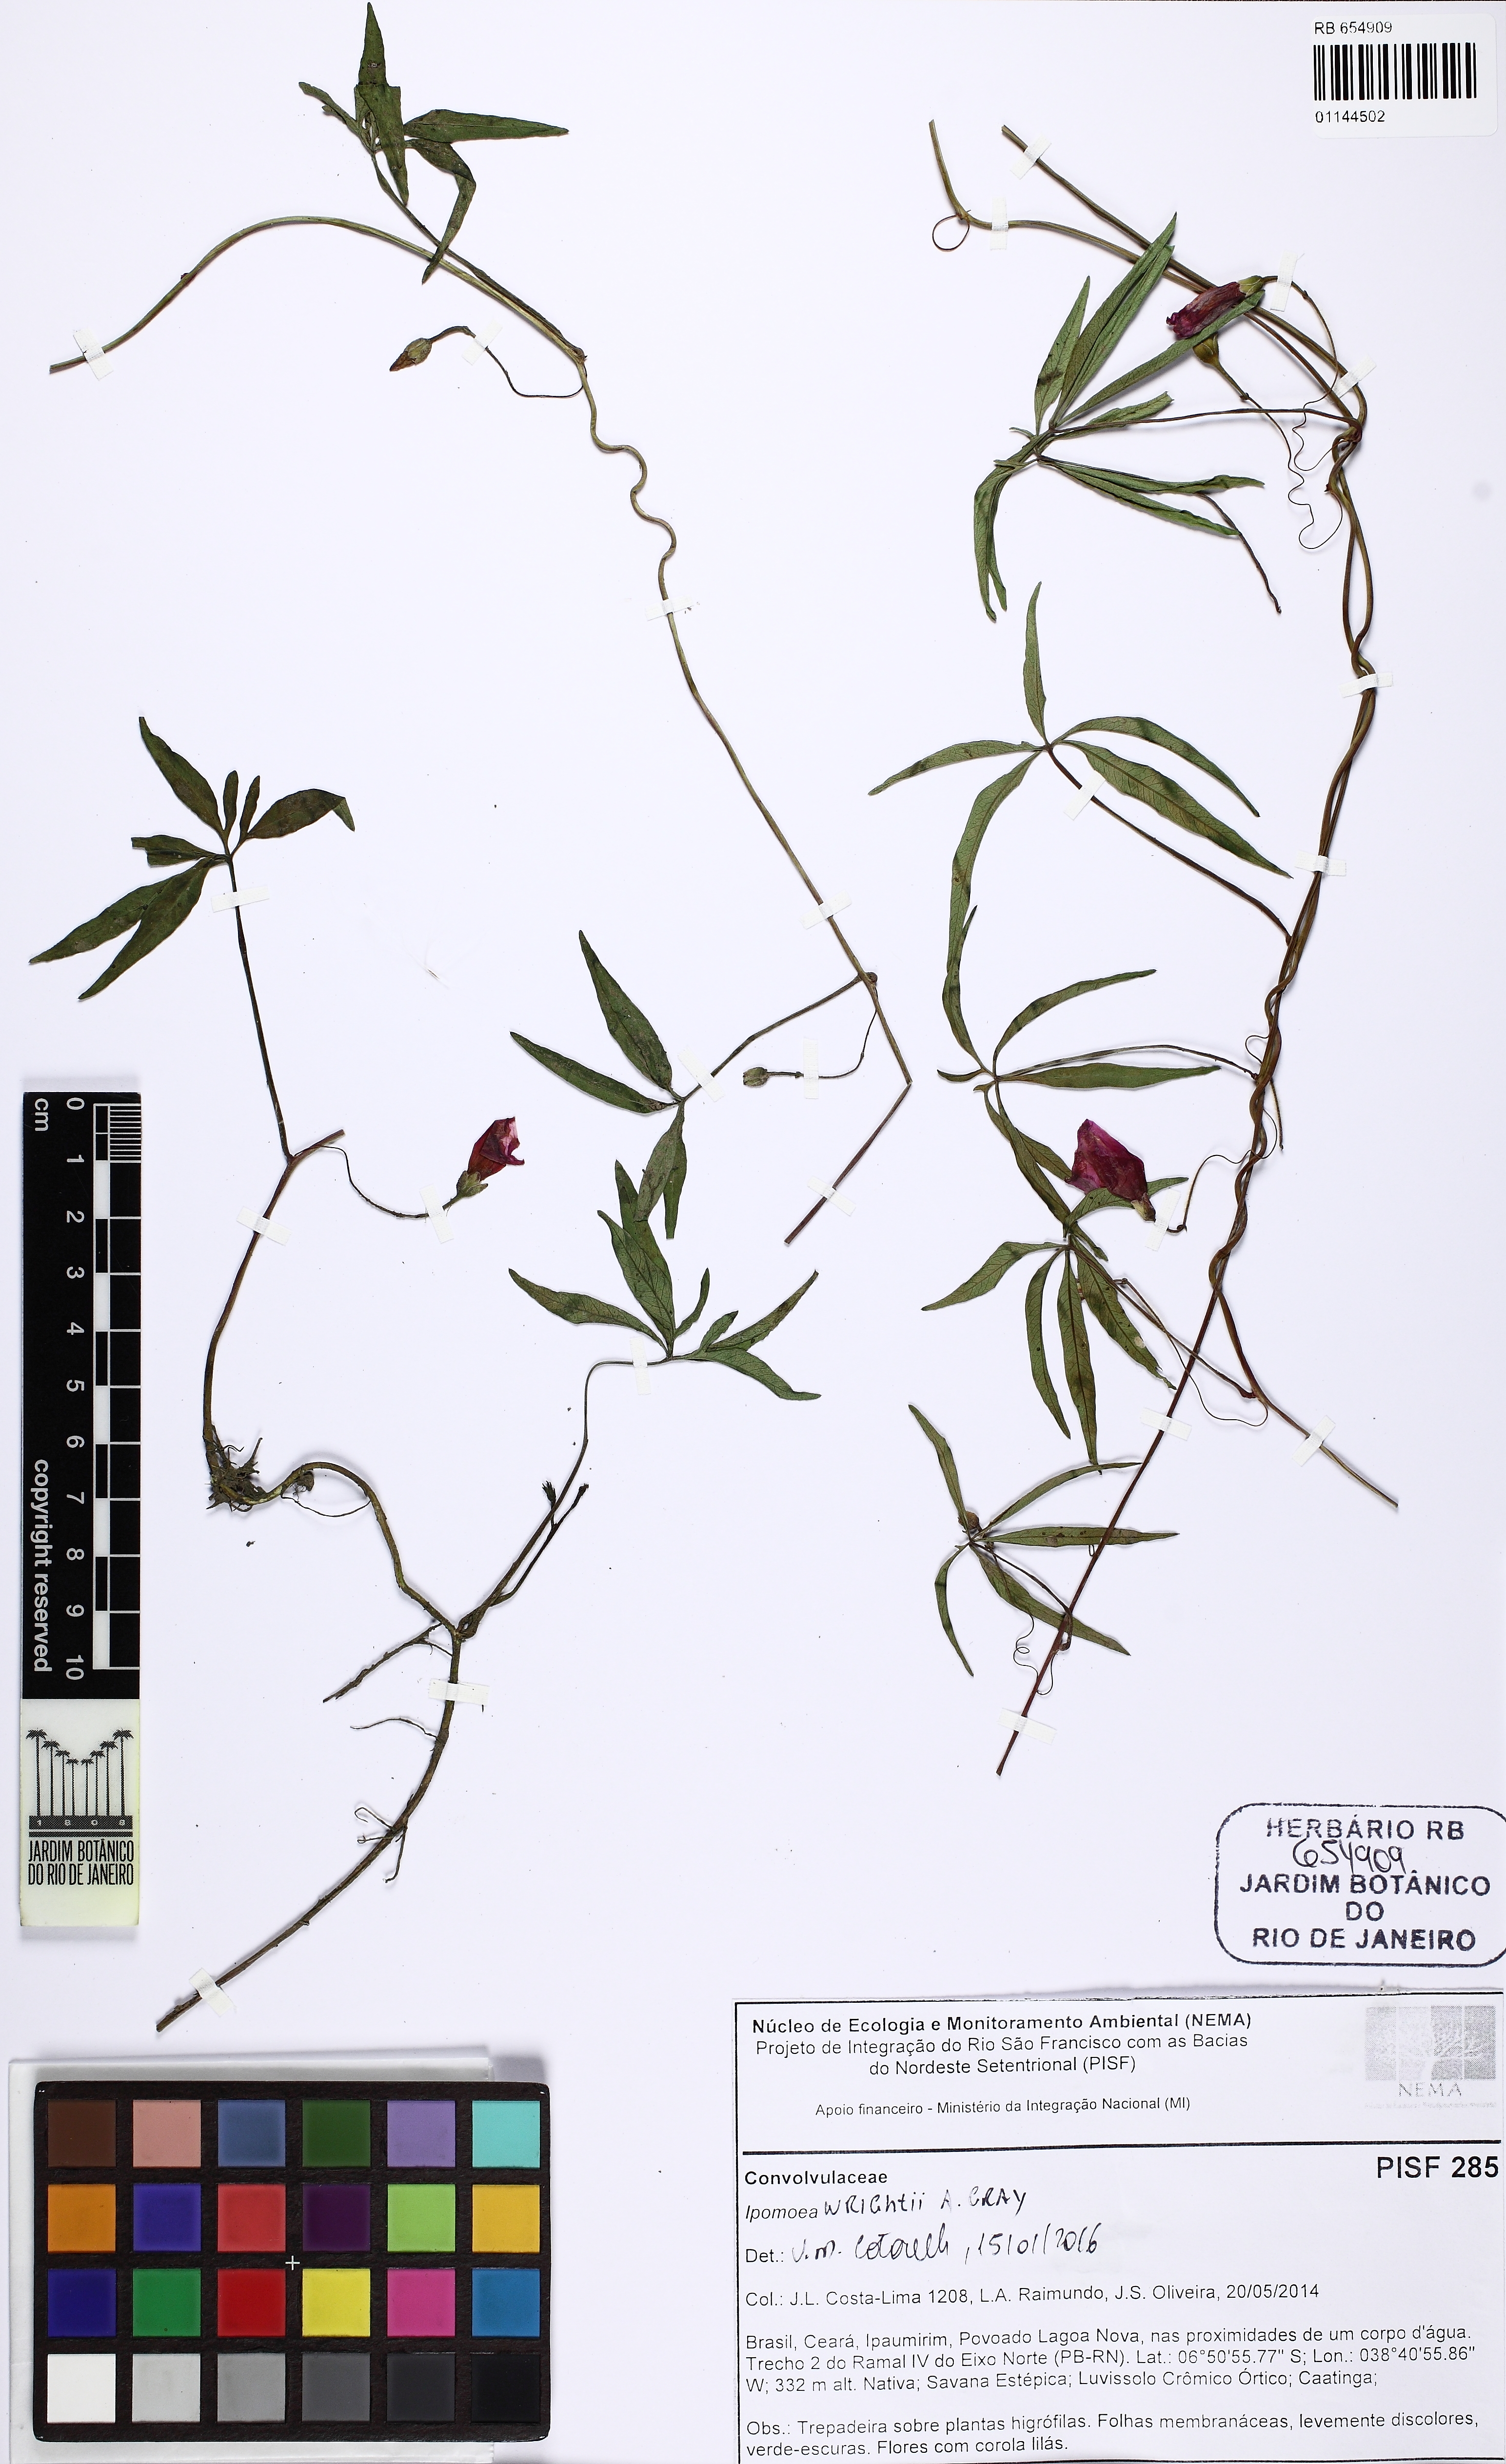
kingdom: Plantae
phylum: Tracheophyta
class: Magnoliopsida
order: Solanales
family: Convolvulaceae
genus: Ipomoea
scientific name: Ipomoea heptaphylla
